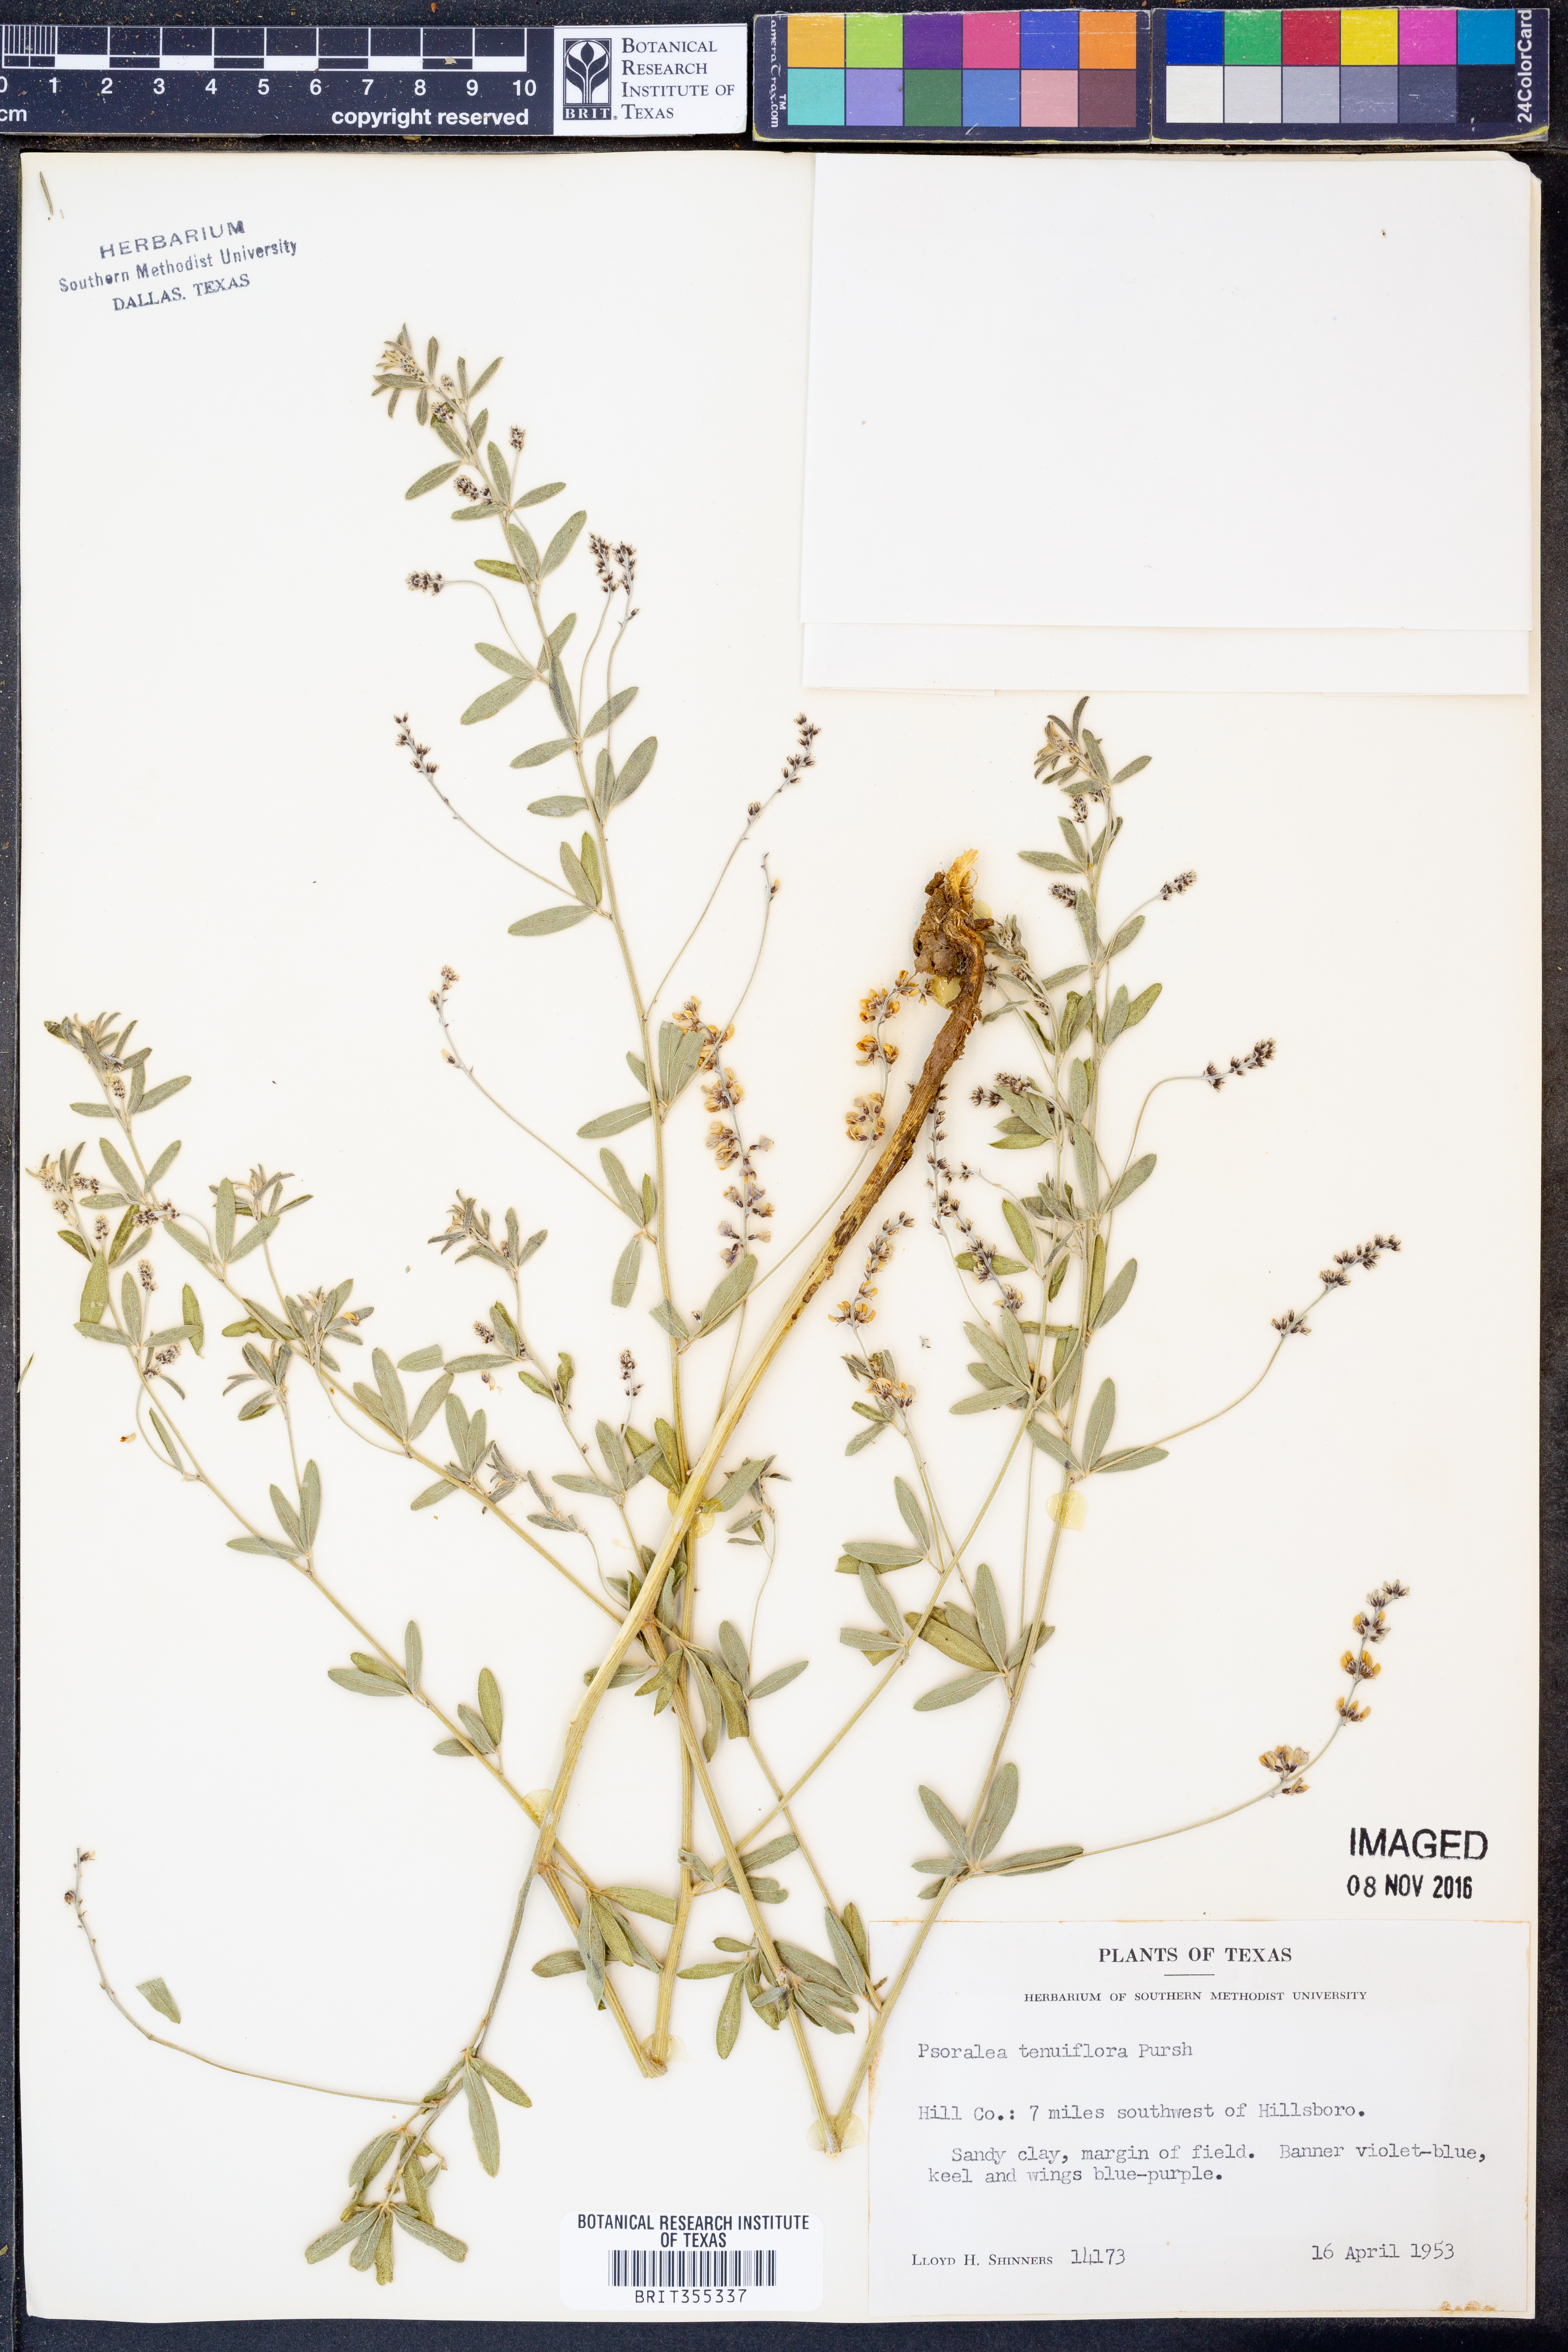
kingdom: Plantae
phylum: Tracheophyta
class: Magnoliopsida
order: Fabales
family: Fabaceae
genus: Pediomelum
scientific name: Pediomelum tenuiflorum
